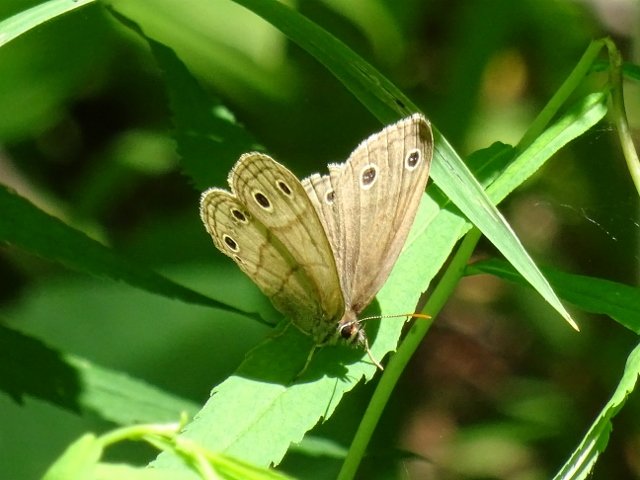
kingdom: Animalia
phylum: Arthropoda
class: Insecta
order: Lepidoptera
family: Nymphalidae
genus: Euptychia
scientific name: Euptychia cymela
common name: Little Wood Satyr
